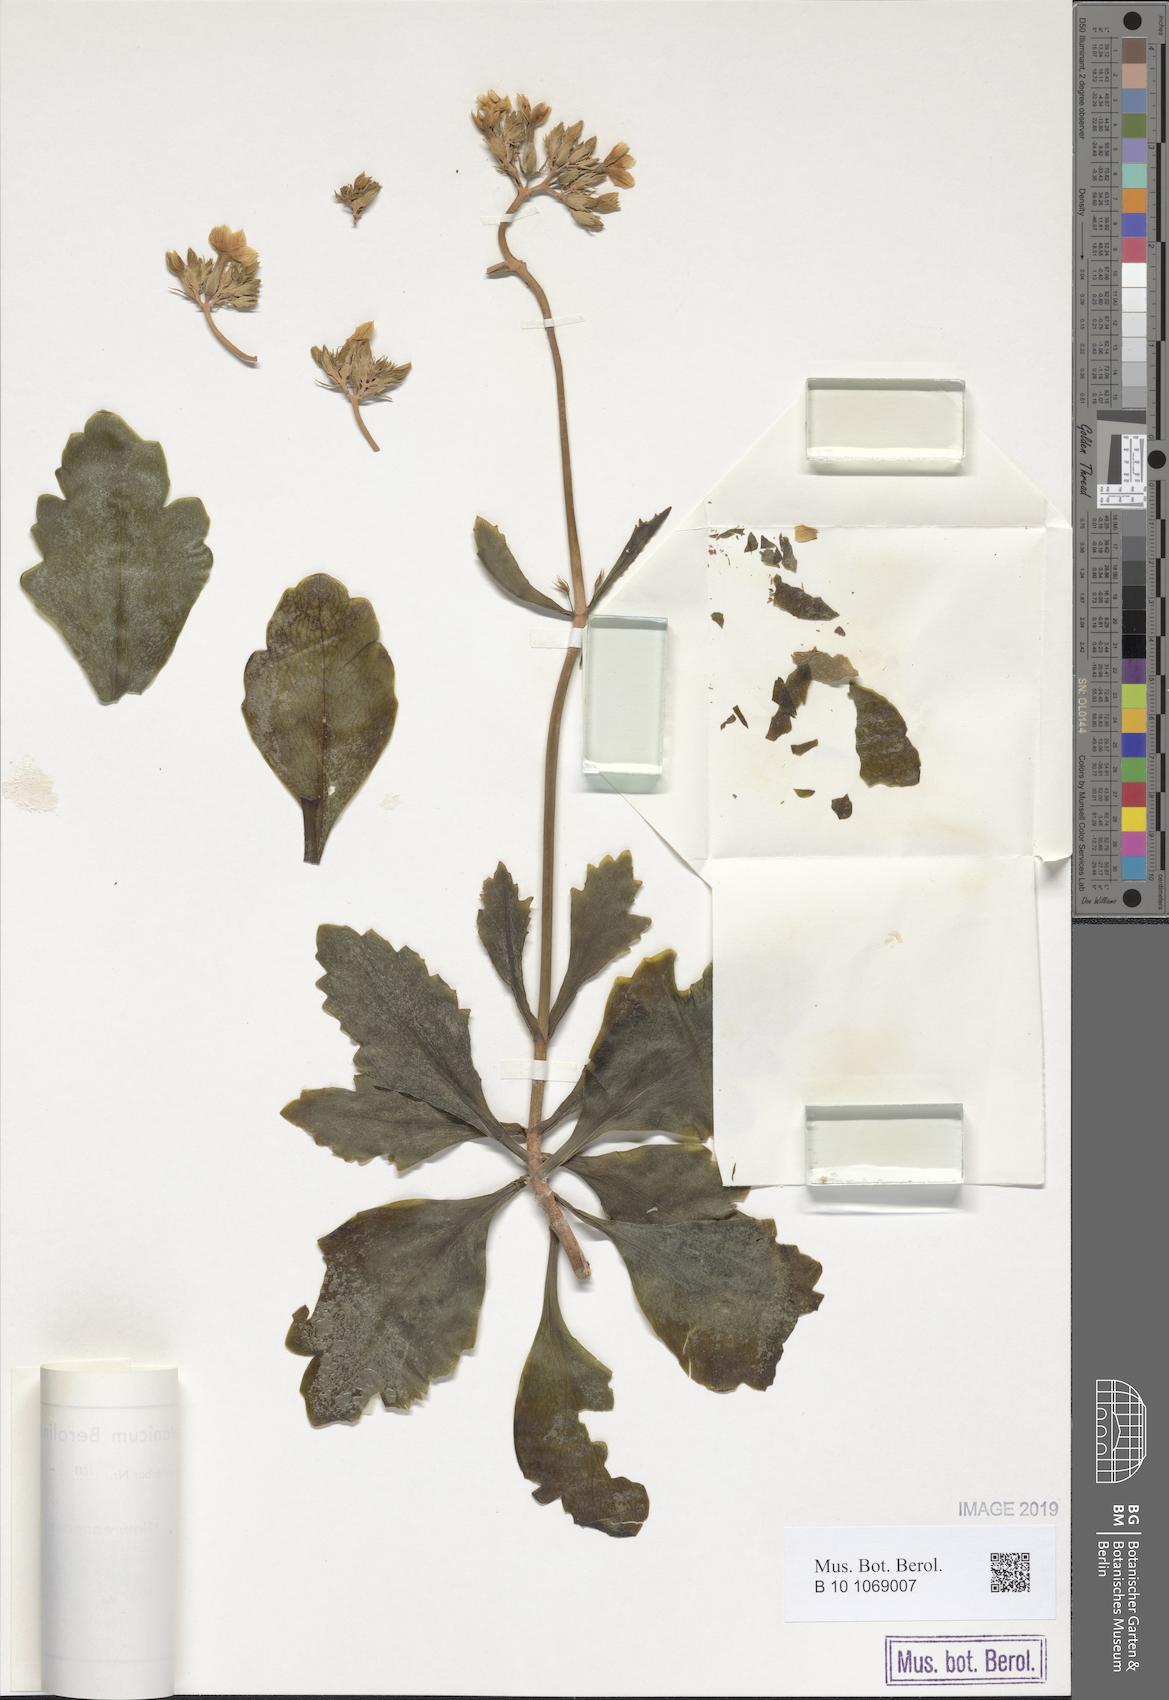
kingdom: Plantae
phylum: Tracheophyta
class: Magnoliopsida
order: Saxifragales
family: Crassulaceae
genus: Kalanchoe
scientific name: Kalanchoe
